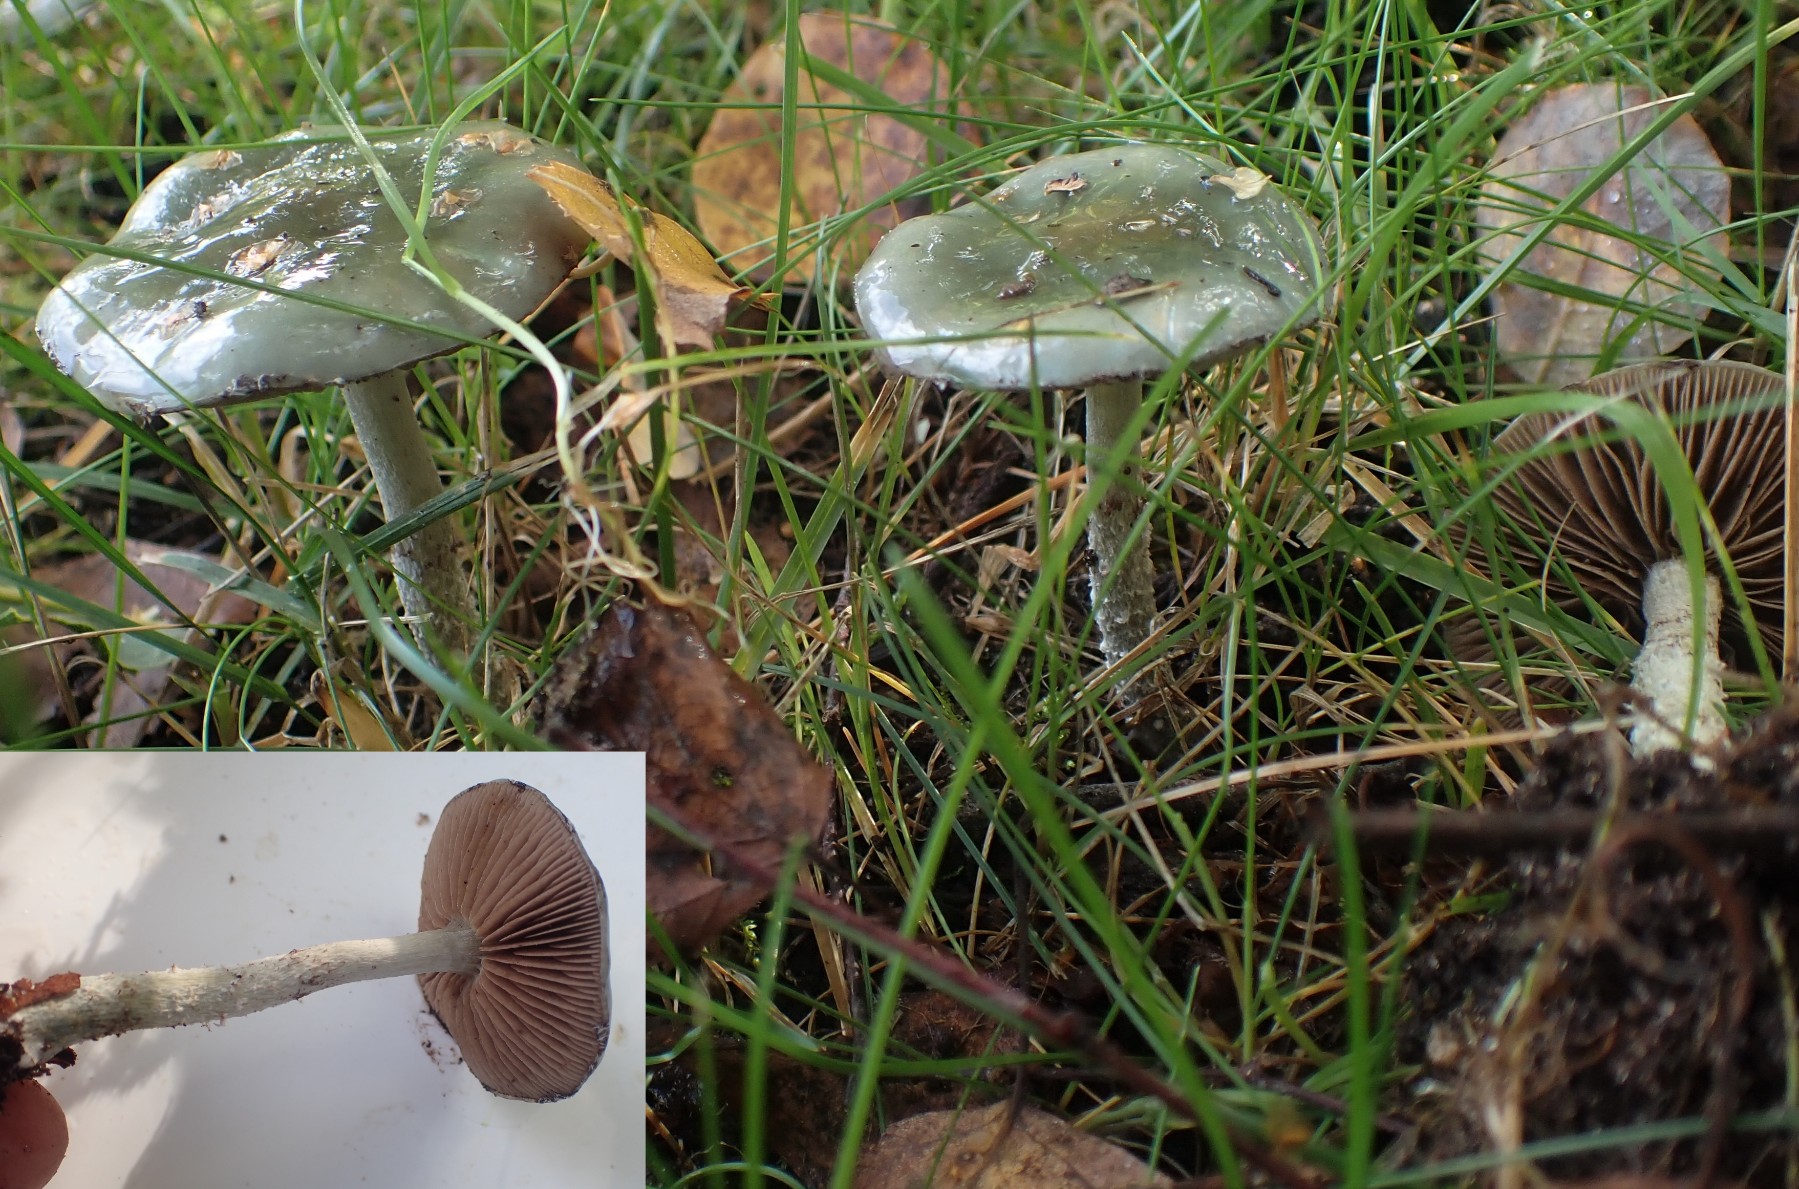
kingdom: Fungi
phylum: Basidiomycota
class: Agaricomycetes
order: Agaricales
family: Strophariaceae
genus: Stropharia
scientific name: Stropharia cyanea
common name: blågrøn bredblad
